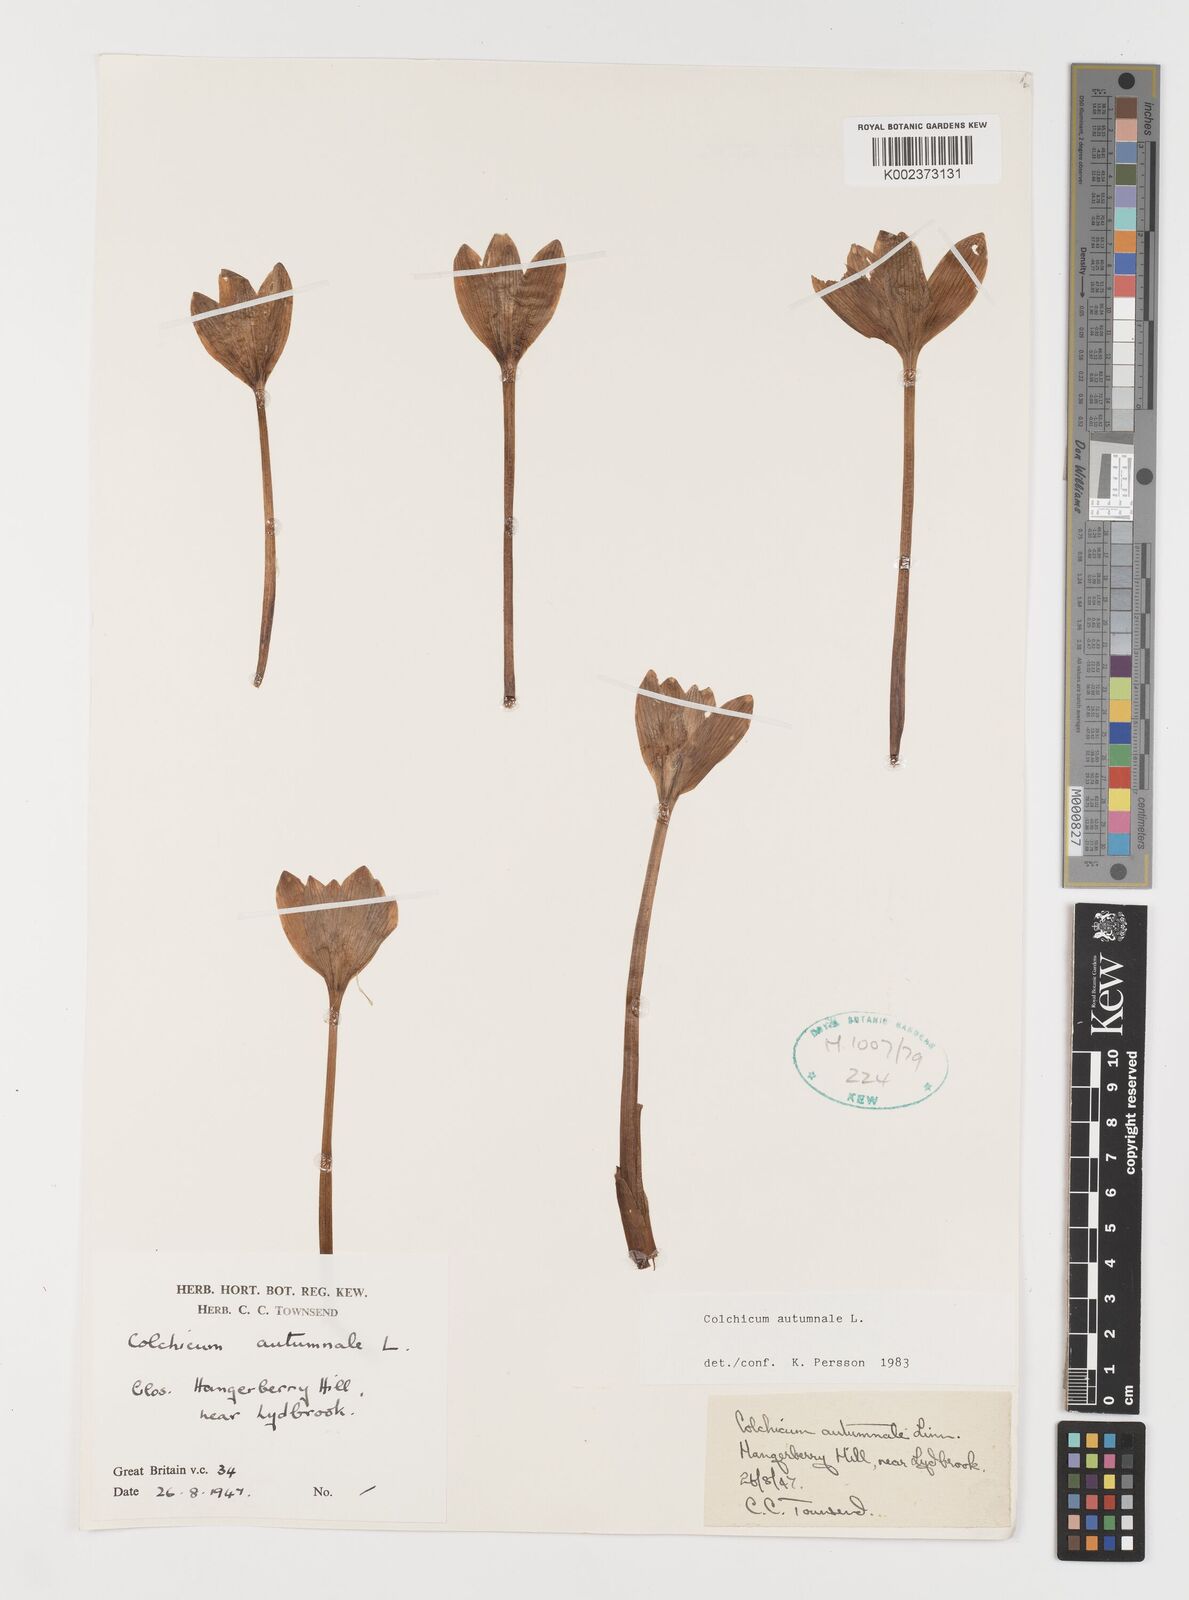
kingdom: Plantae
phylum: Tracheophyta
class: Liliopsida
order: Liliales
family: Colchicaceae
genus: Colchicum
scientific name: Colchicum autumnale
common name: Autumn crocus
